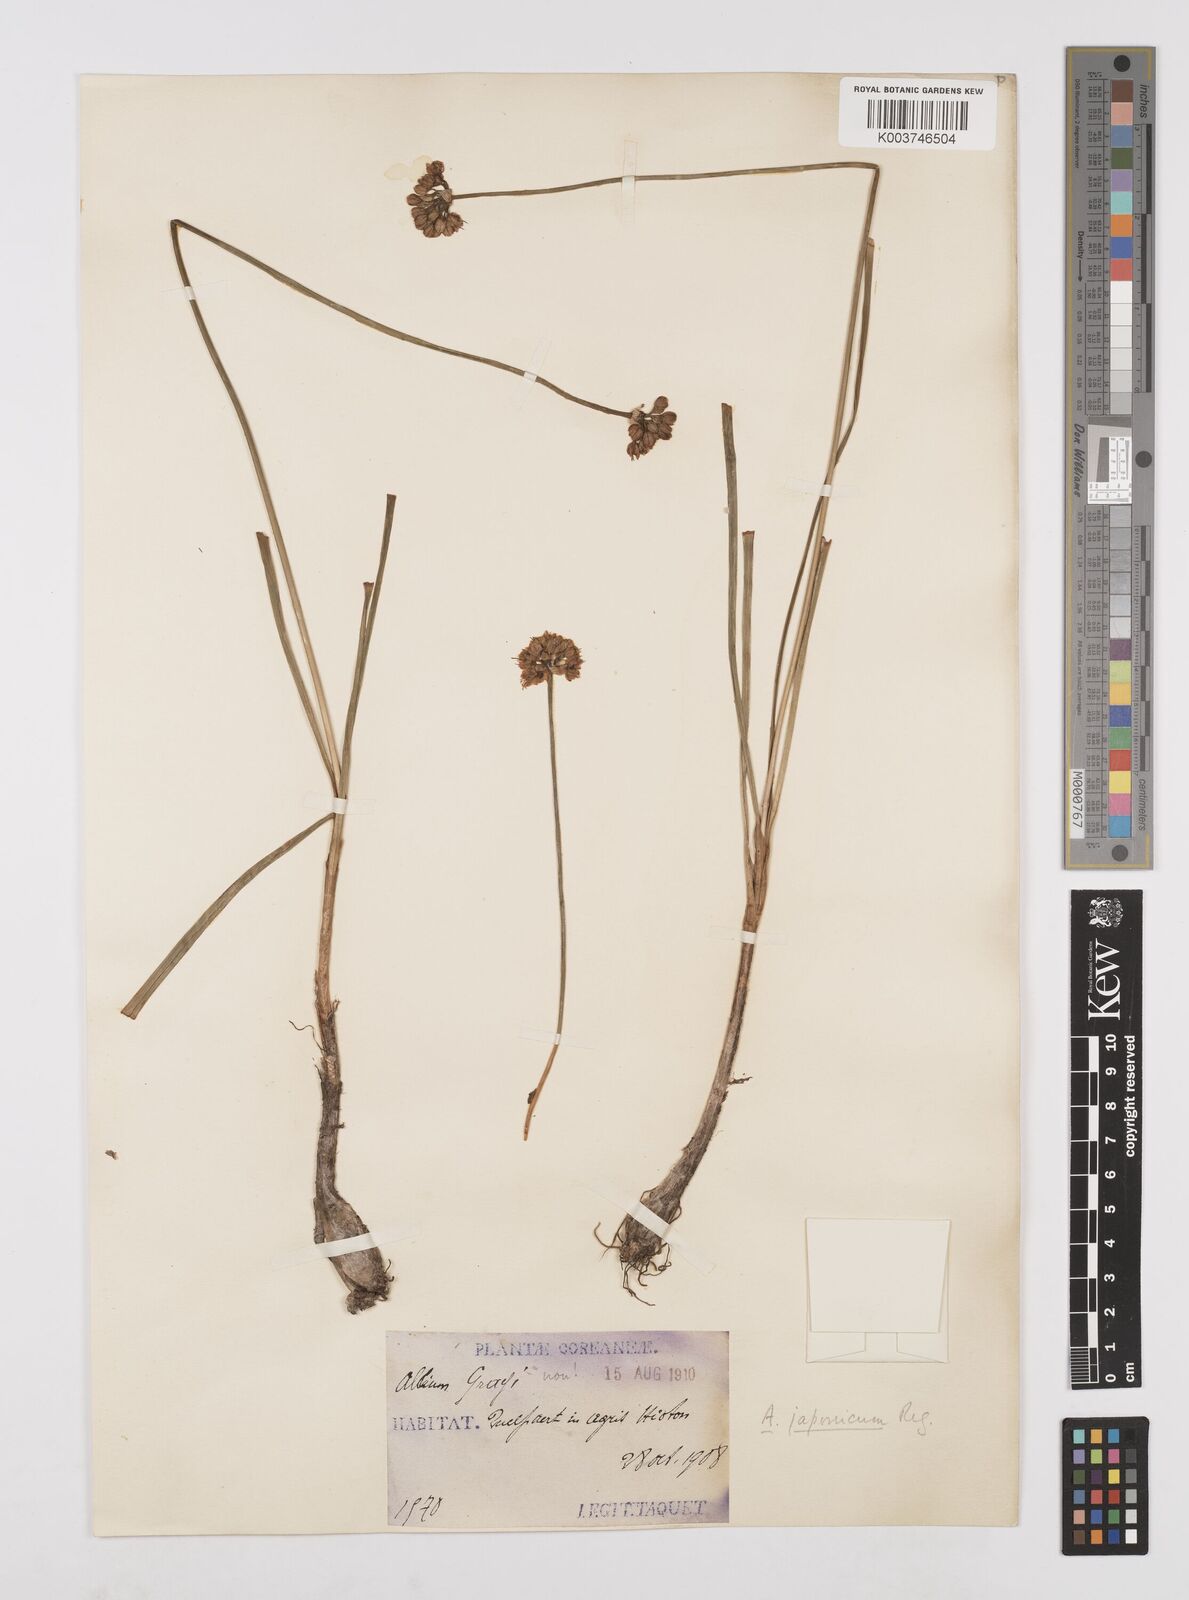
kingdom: Plantae
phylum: Tracheophyta
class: Liliopsida
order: Asparagales
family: Amaryllidaceae
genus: Allium
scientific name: Allium sacculiferum
